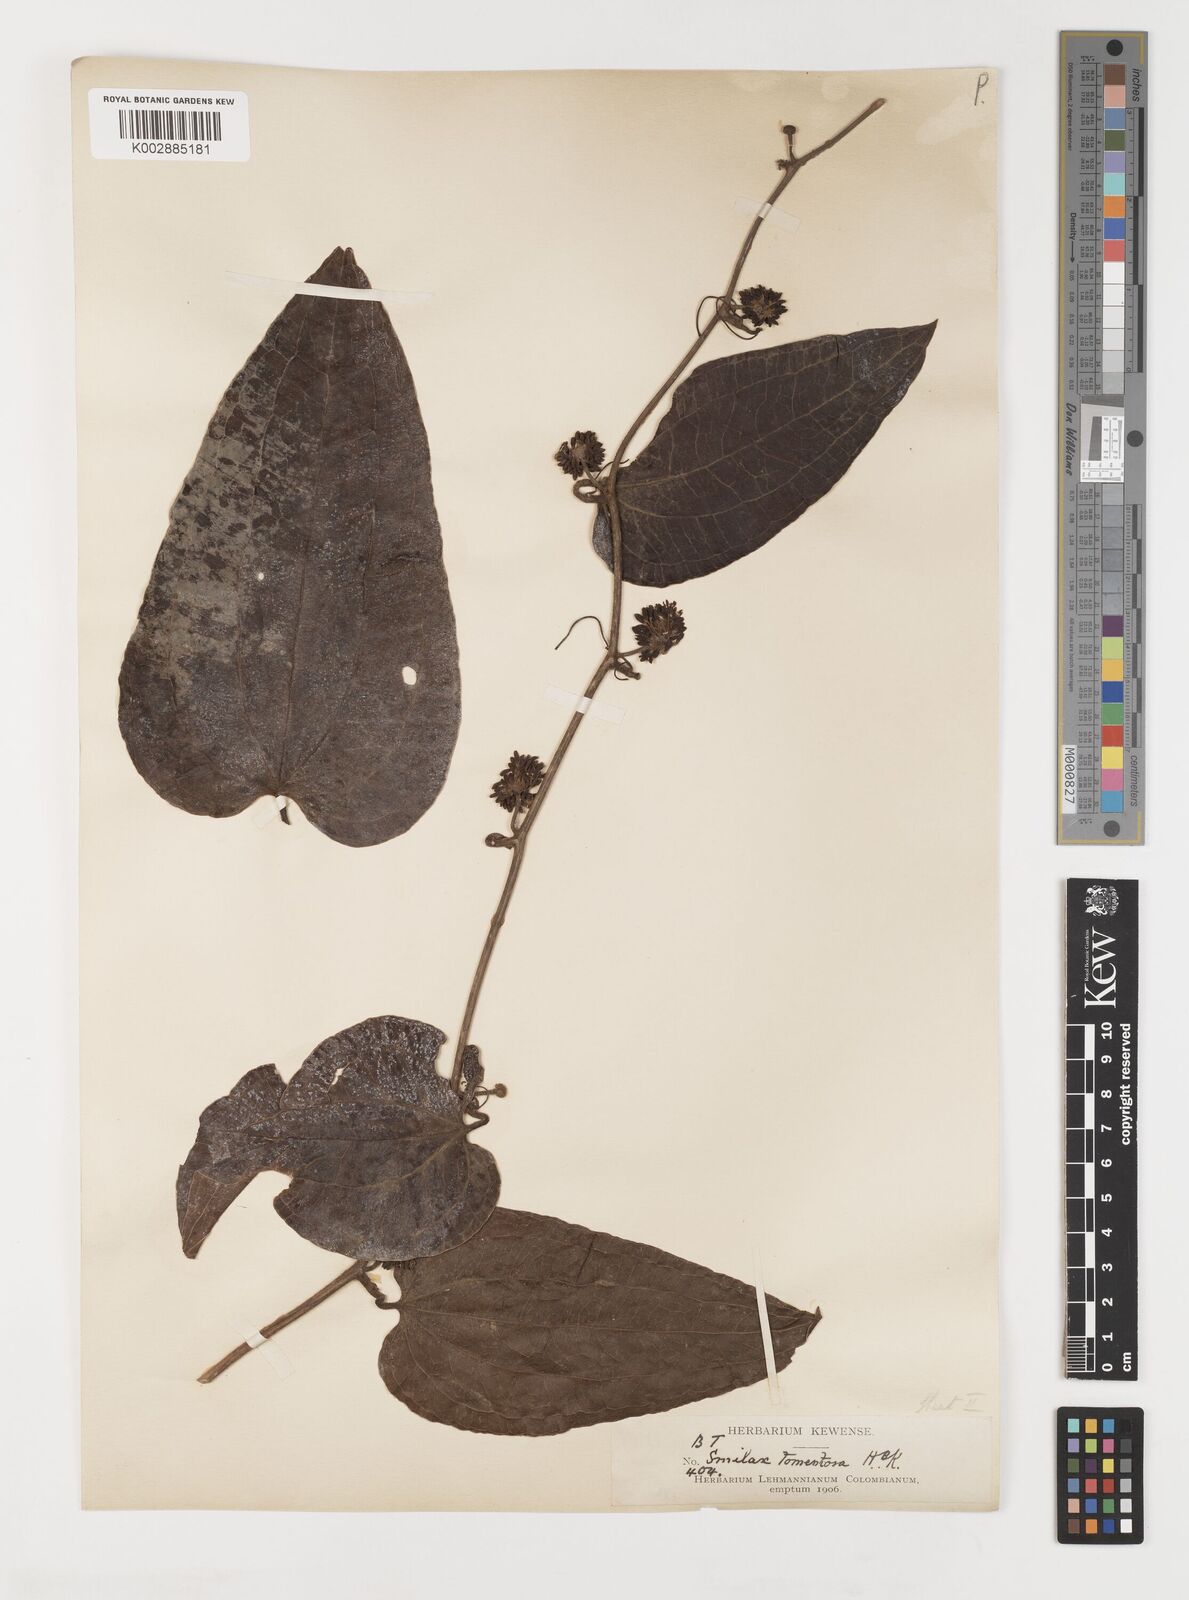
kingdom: Plantae
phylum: Tracheophyta
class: Liliopsida
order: Liliales
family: Smilacaceae
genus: Smilax
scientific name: Smilax tomentosa
